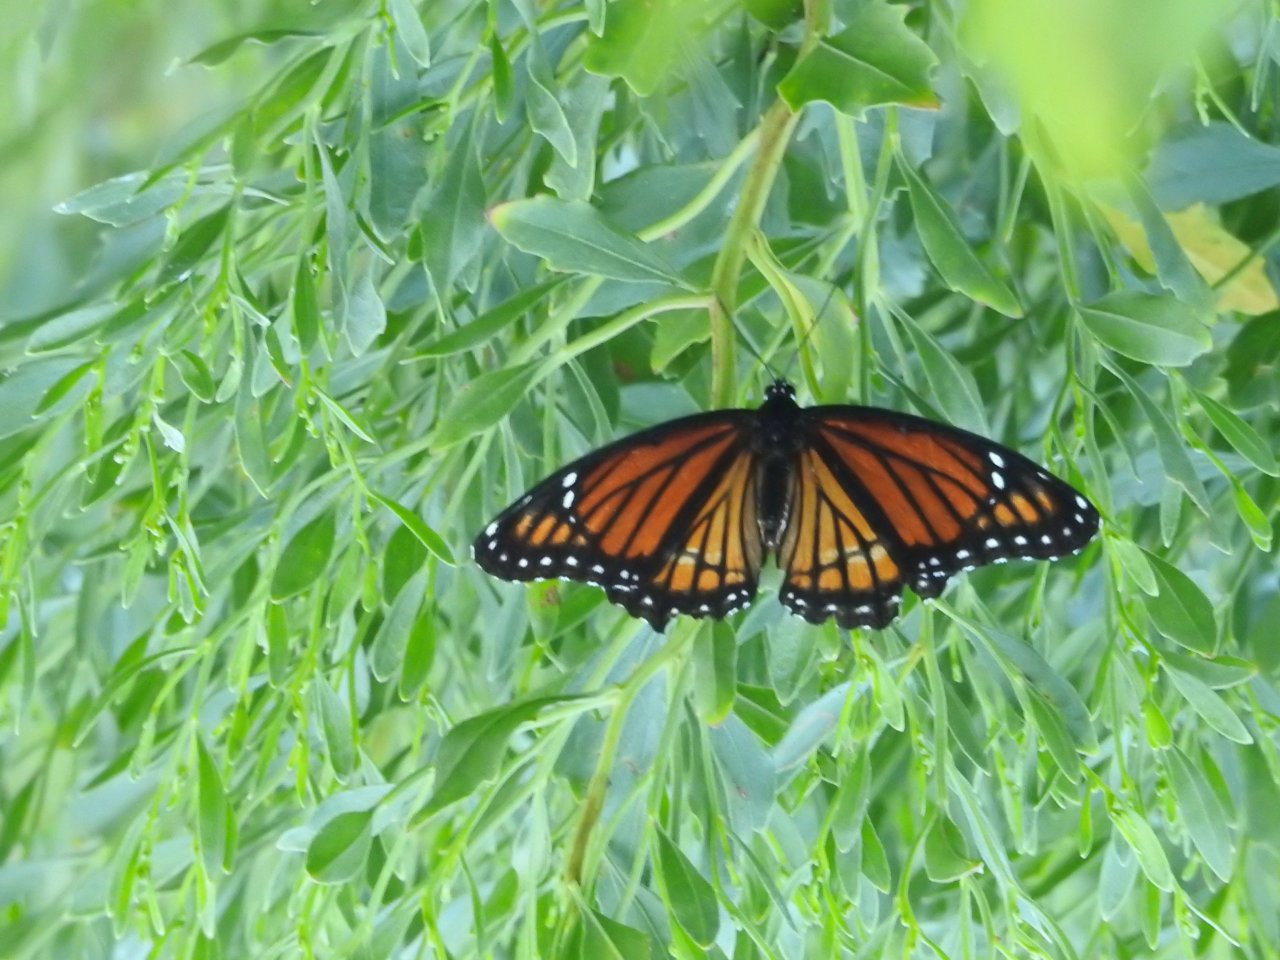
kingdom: Animalia
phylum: Arthropoda
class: Insecta
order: Lepidoptera
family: Nymphalidae
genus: Limenitis
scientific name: Limenitis archippus
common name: Viceroy
